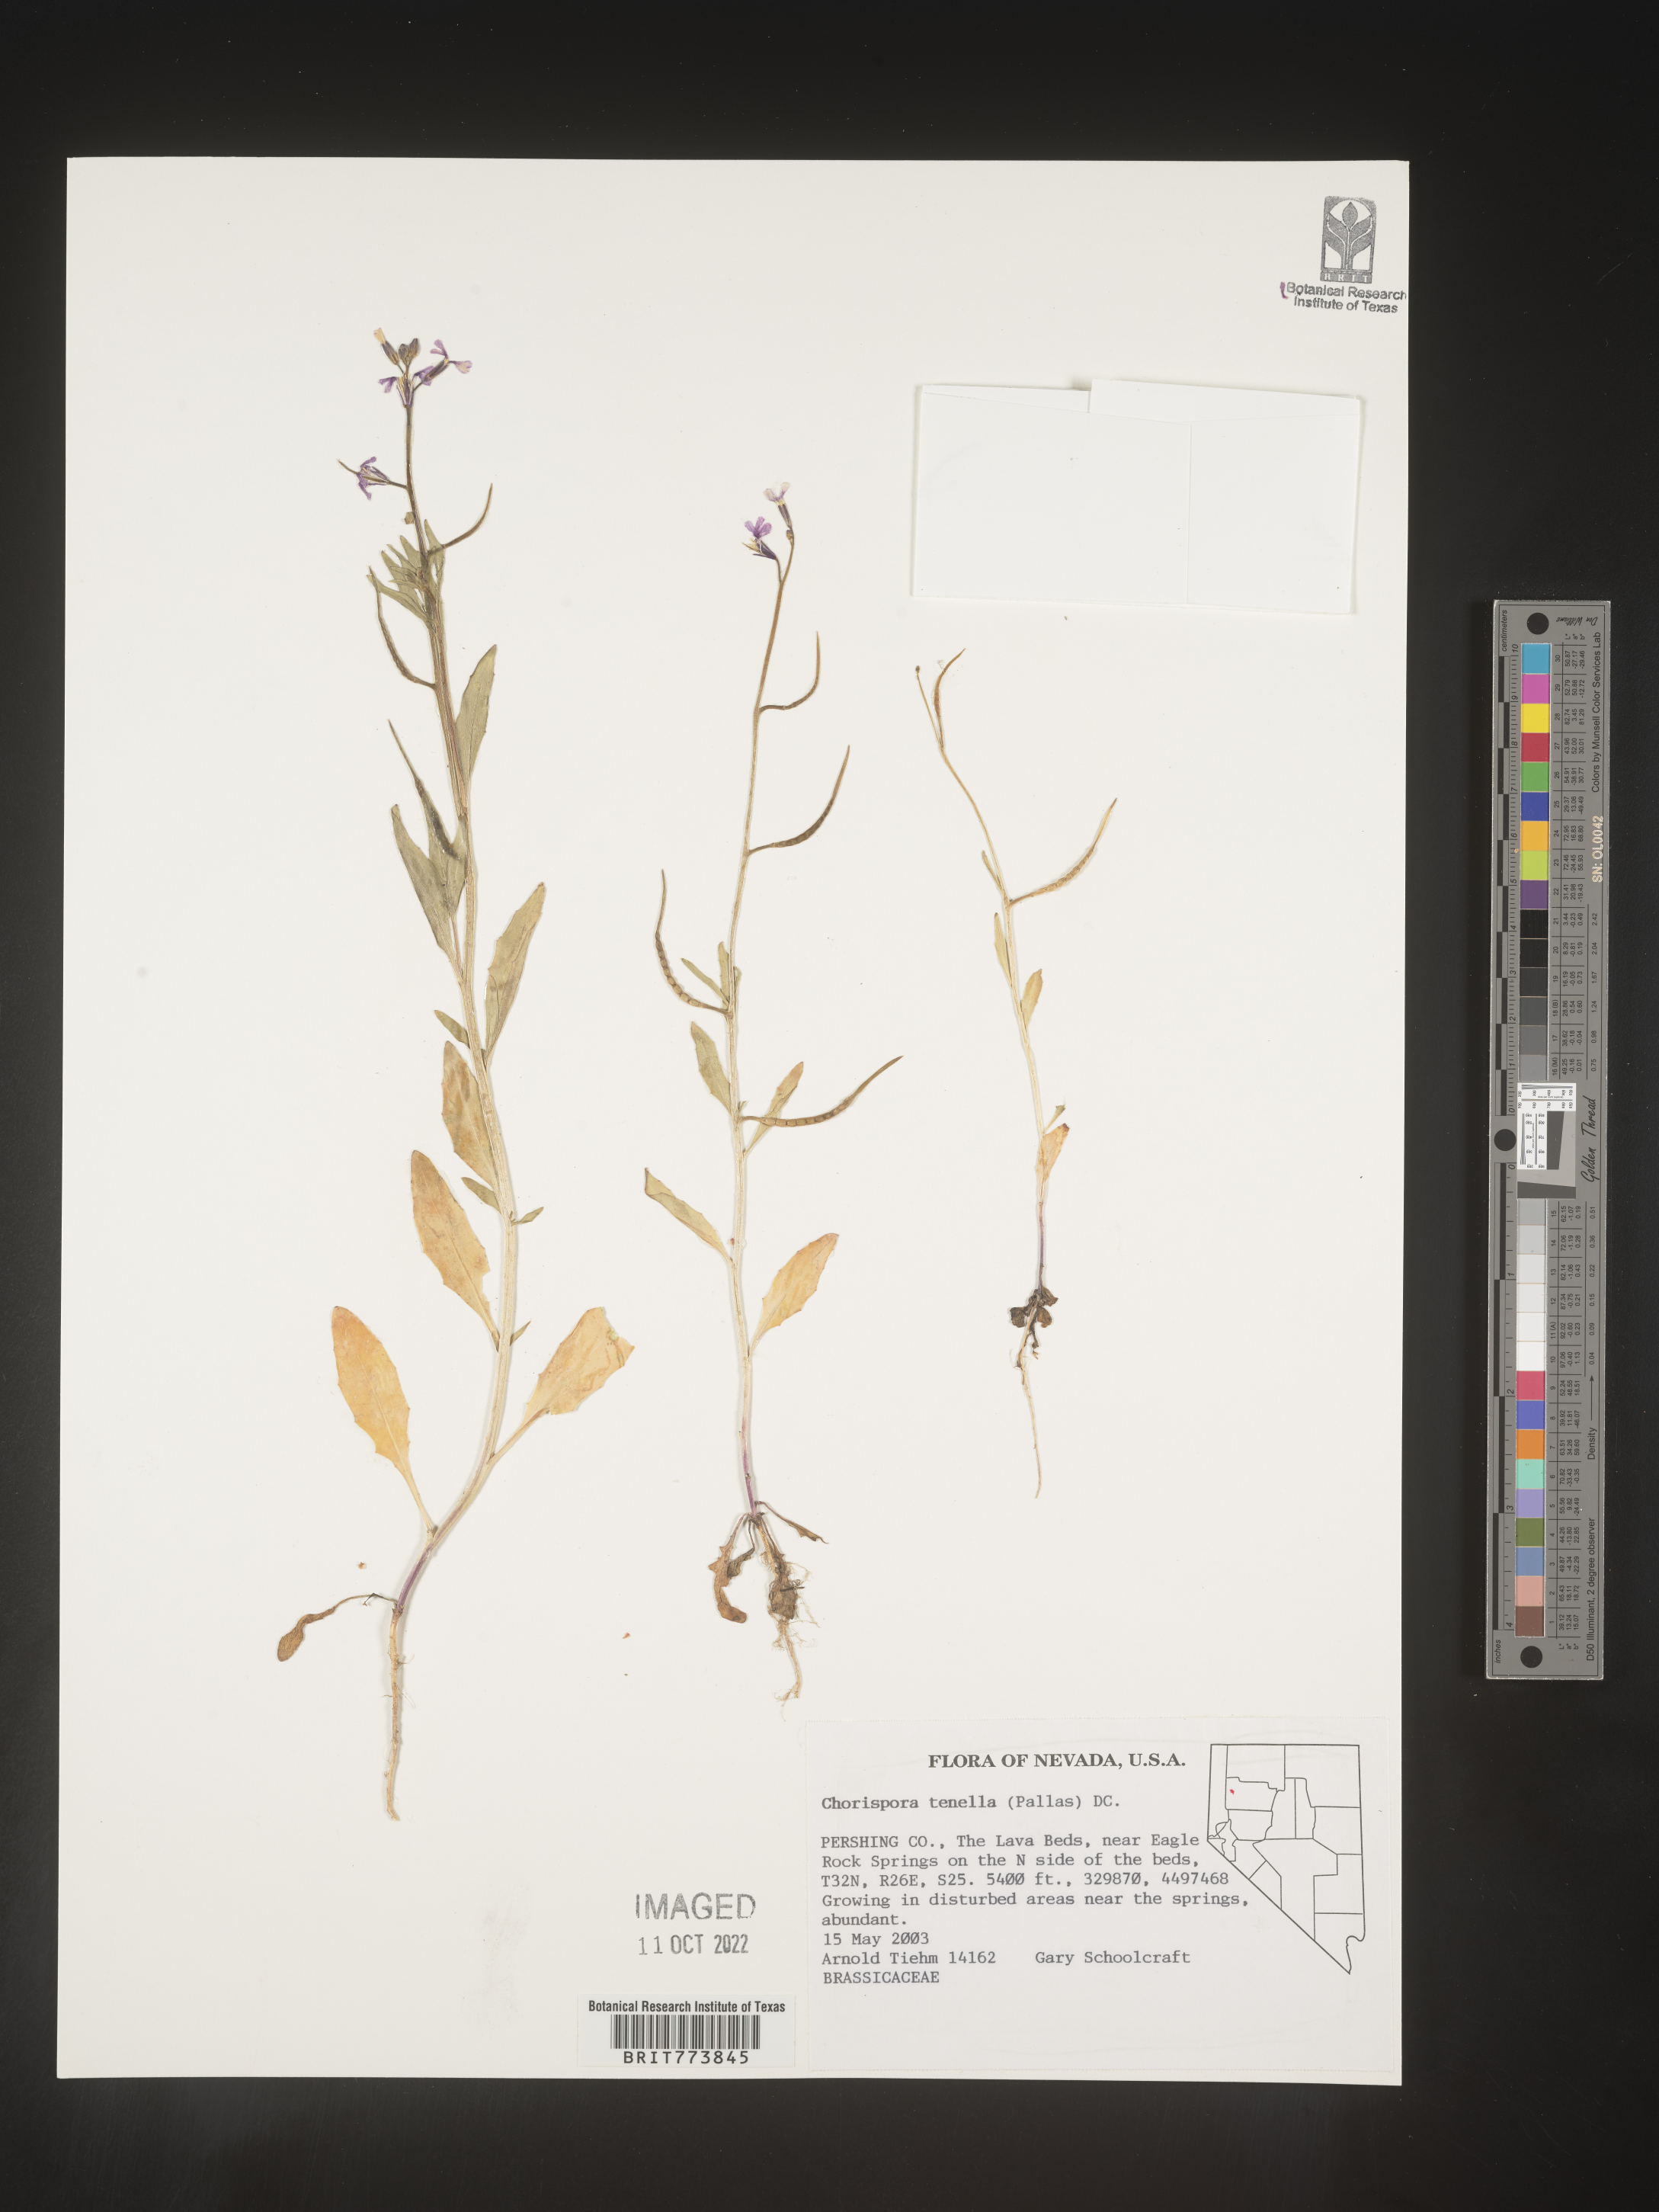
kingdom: Plantae
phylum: Tracheophyta
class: Magnoliopsida
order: Brassicales
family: Brassicaceae
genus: Chorispora
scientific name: Chorispora tenella
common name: Crossflower
